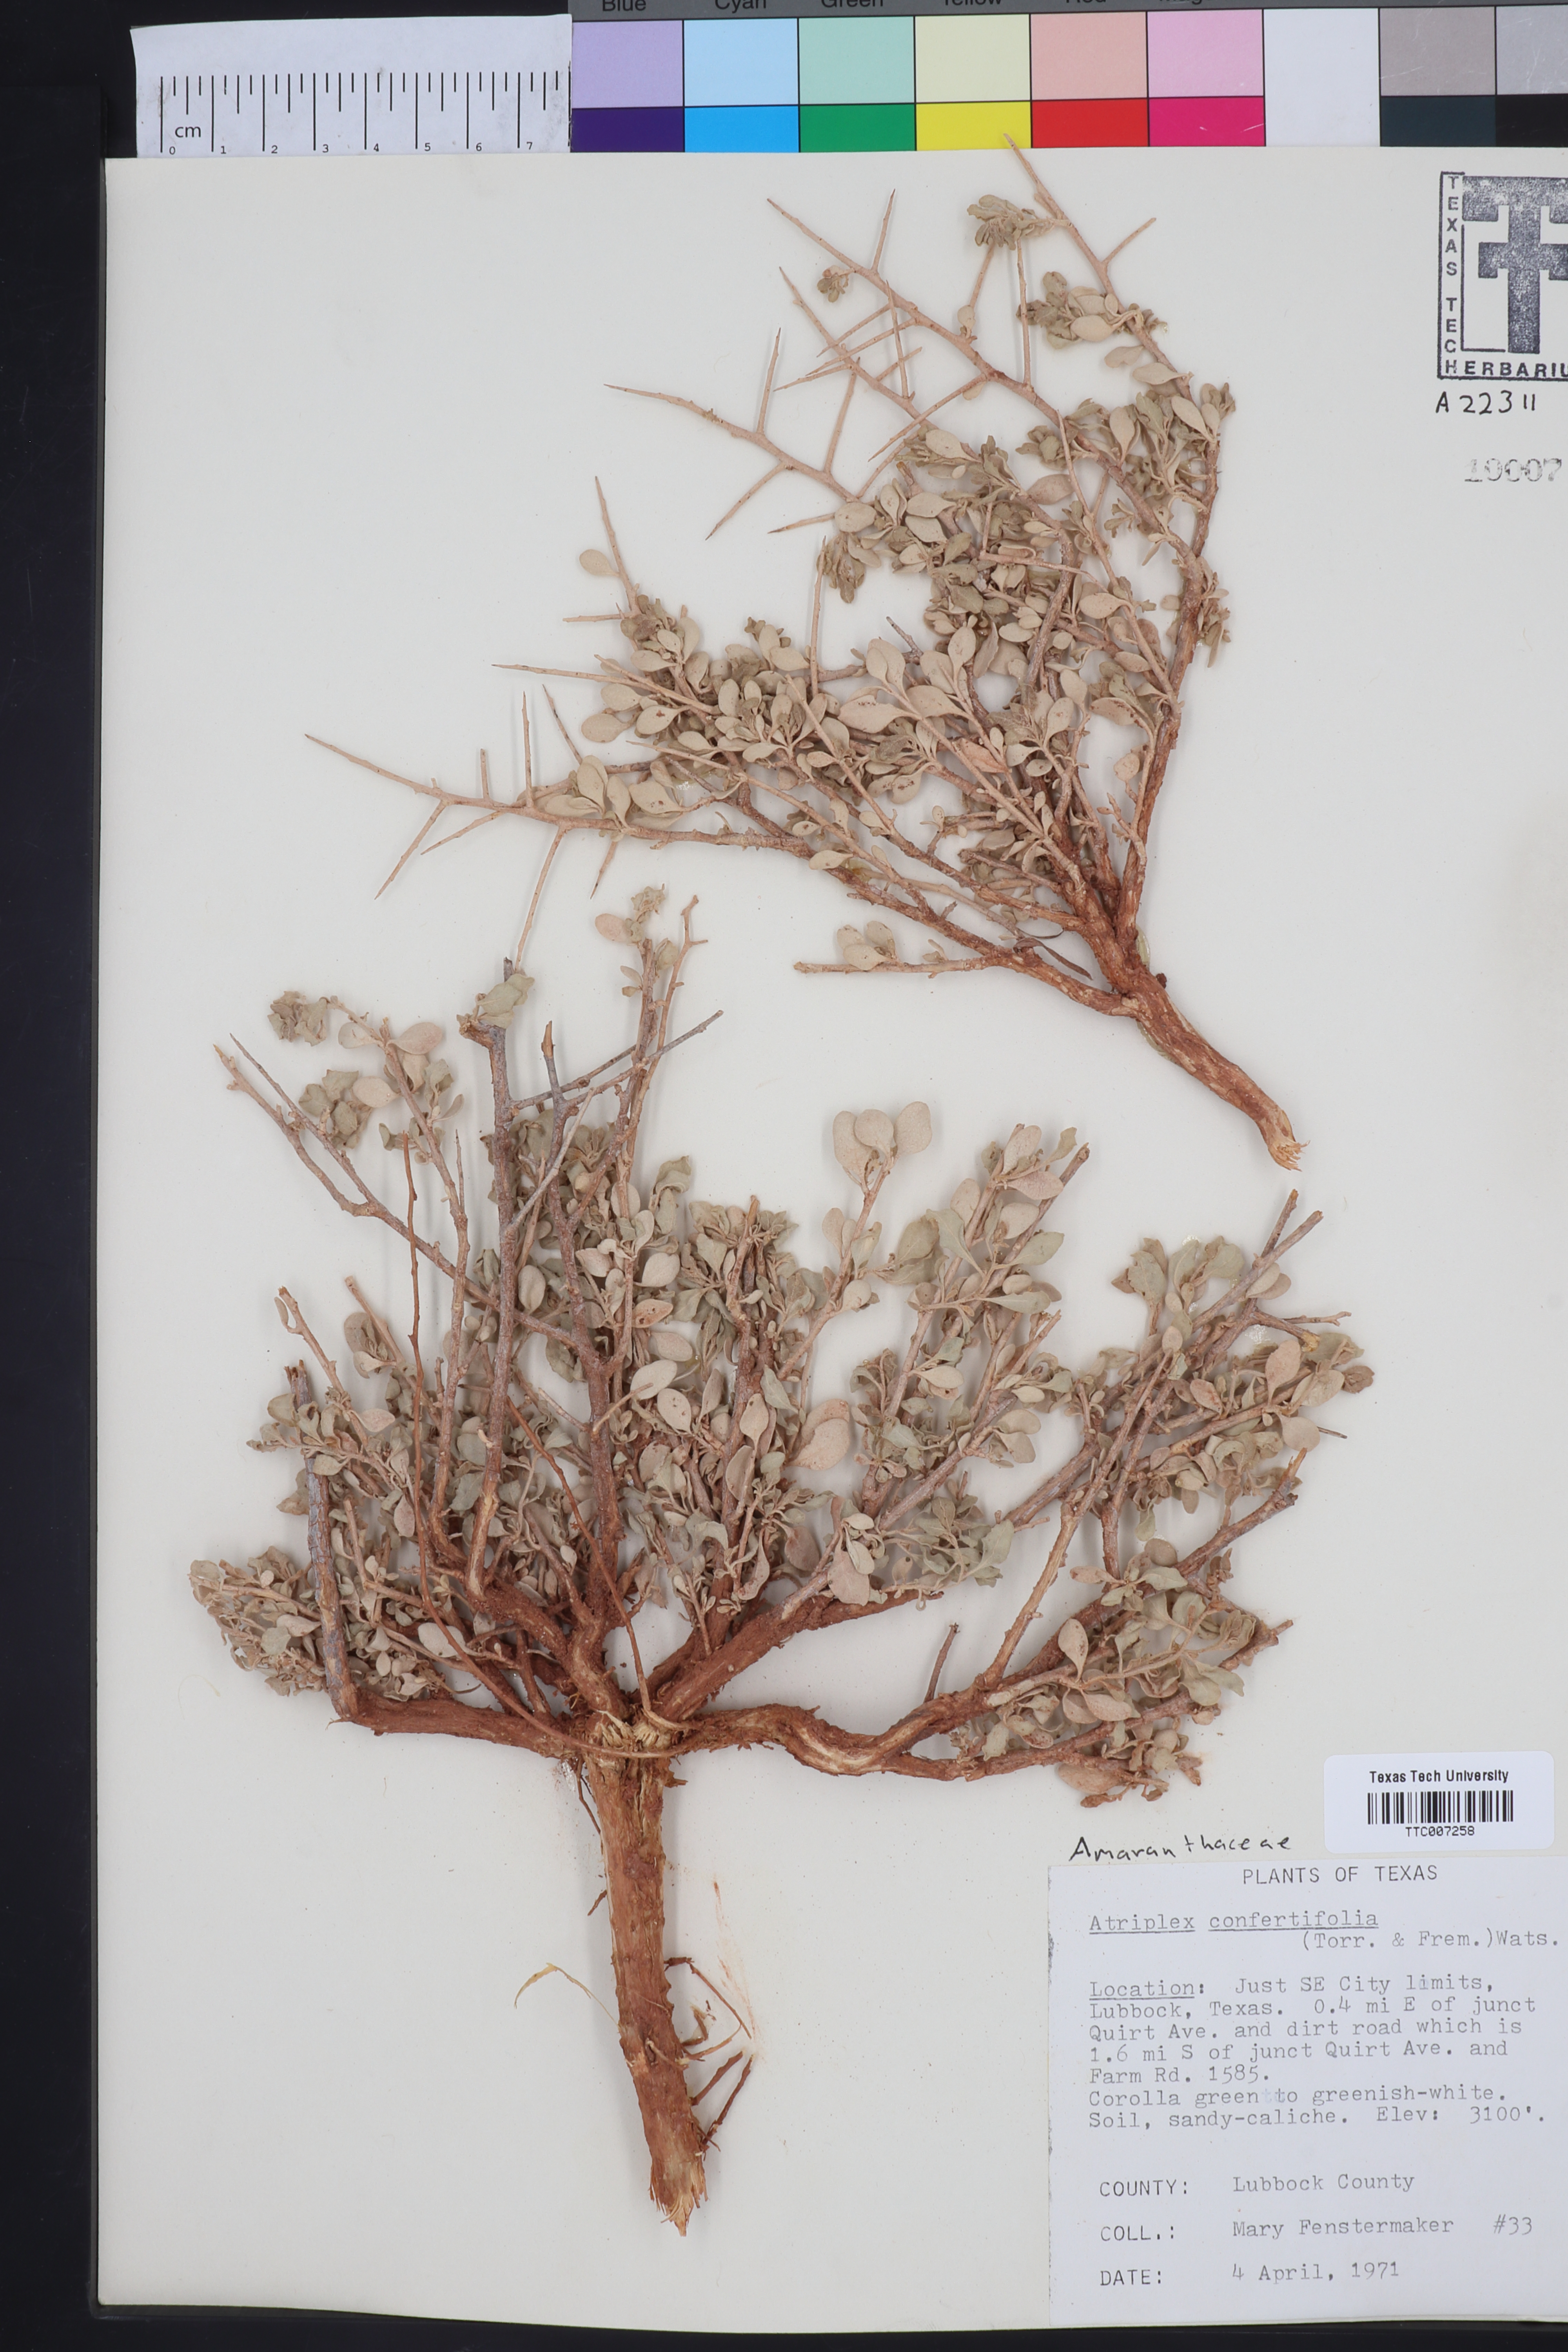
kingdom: Plantae
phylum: Tracheophyta
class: Magnoliopsida
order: Caryophyllales
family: Amaranthaceae
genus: Atriplex
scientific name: Atriplex confertifolia
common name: Shadscale
